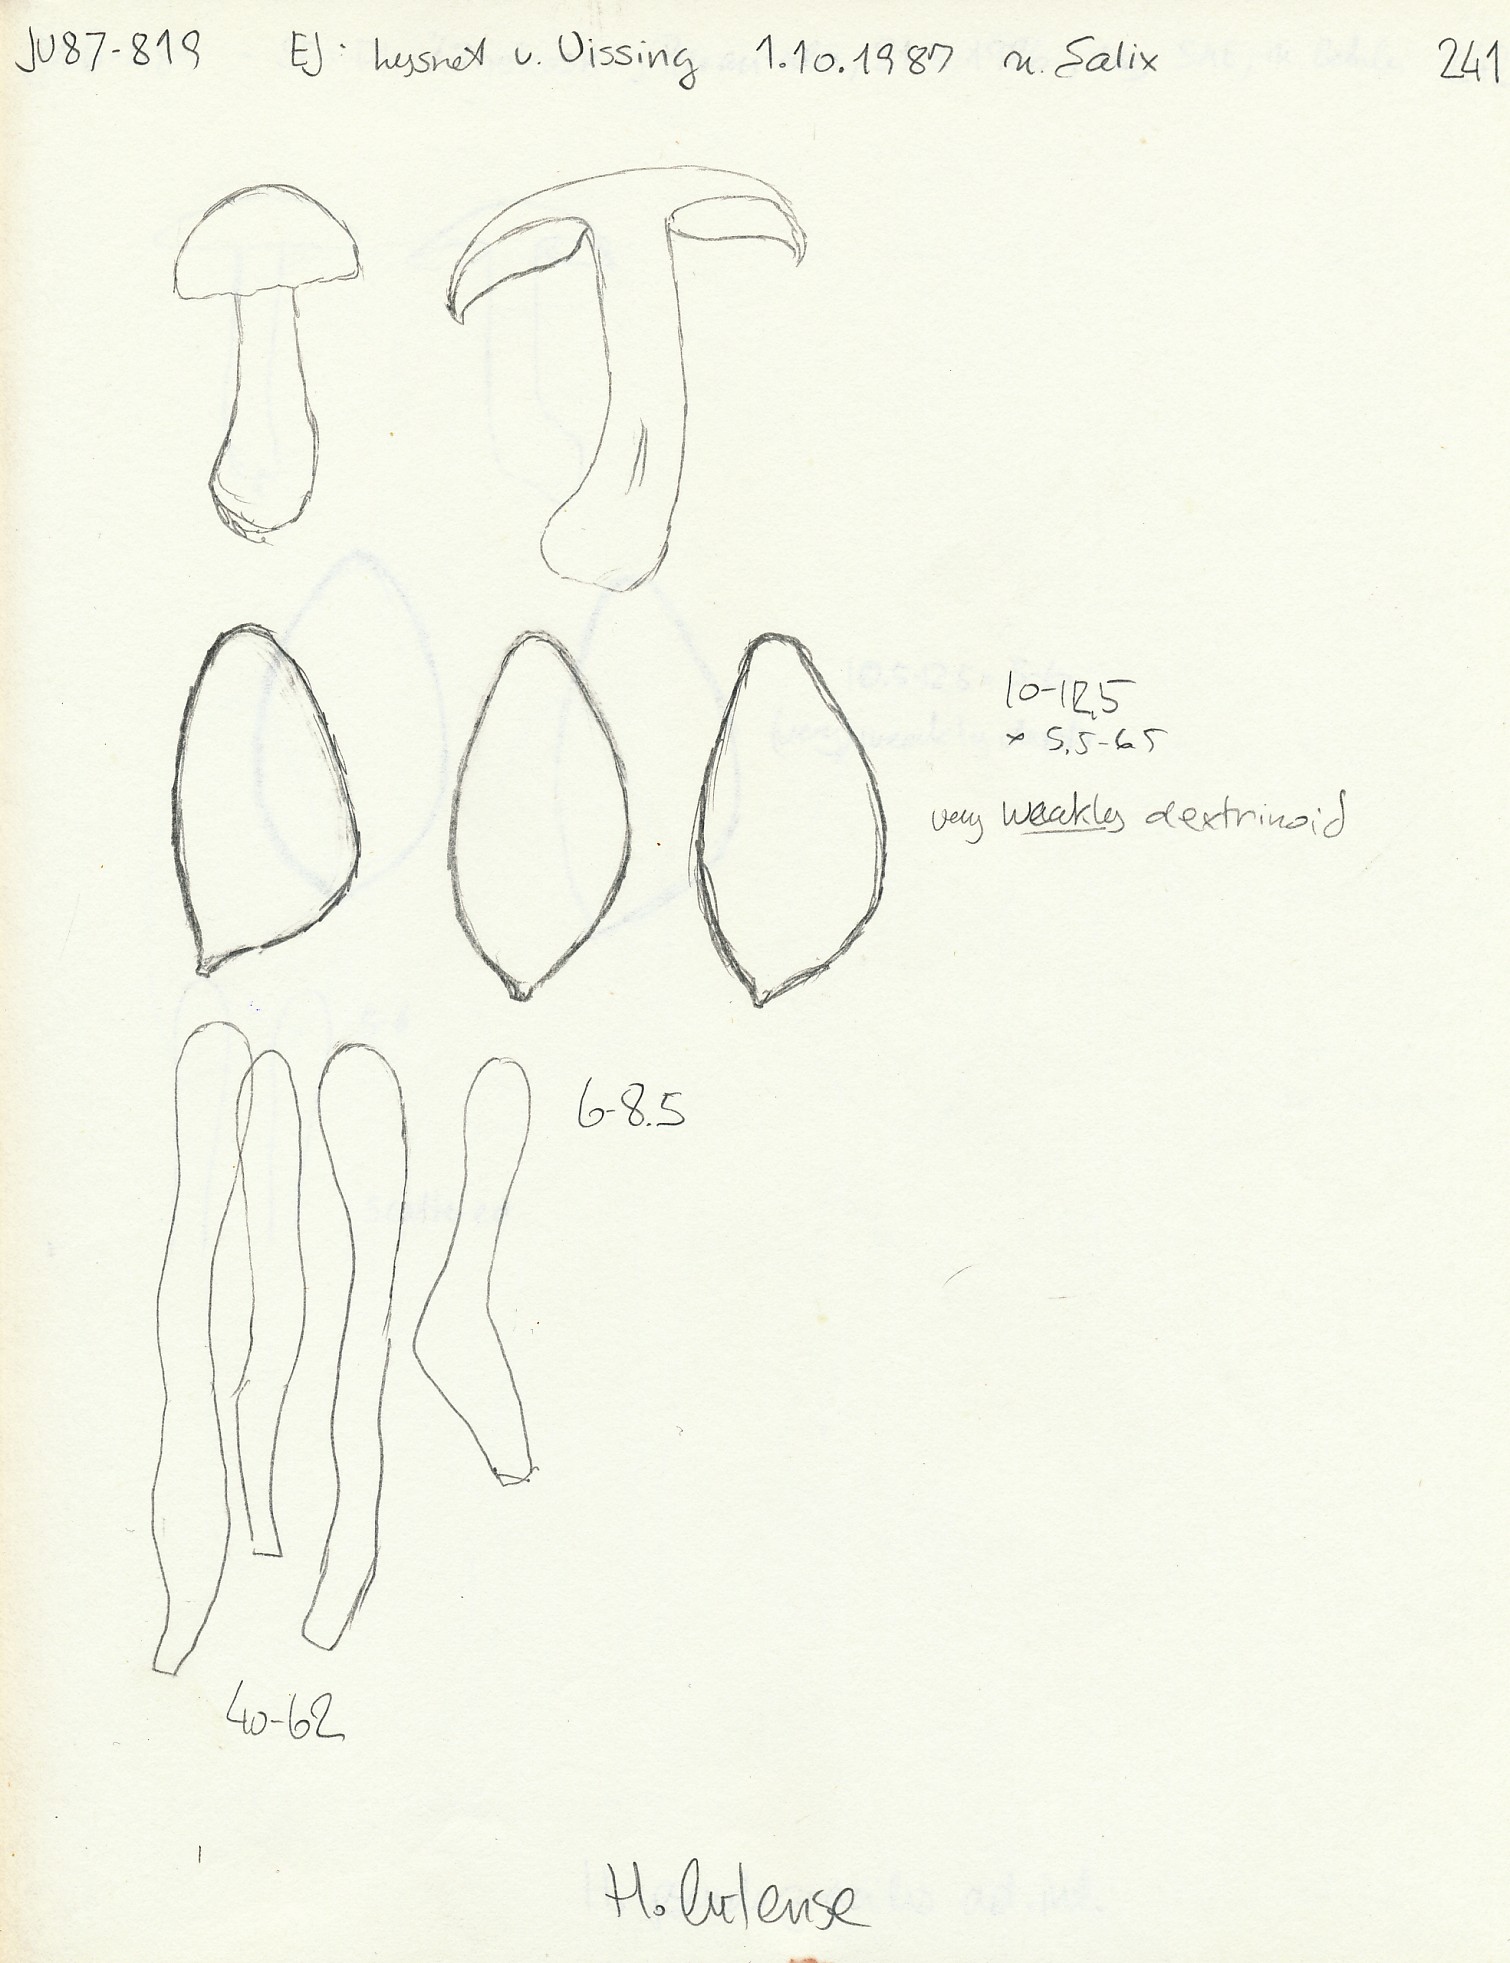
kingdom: Fungi
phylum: Basidiomycota
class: Agaricomycetes
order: Agaricales
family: Hymenogastraceae
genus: Hebeloma
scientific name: Hebeloma crustuliniforme
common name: almindelig tåreblad
